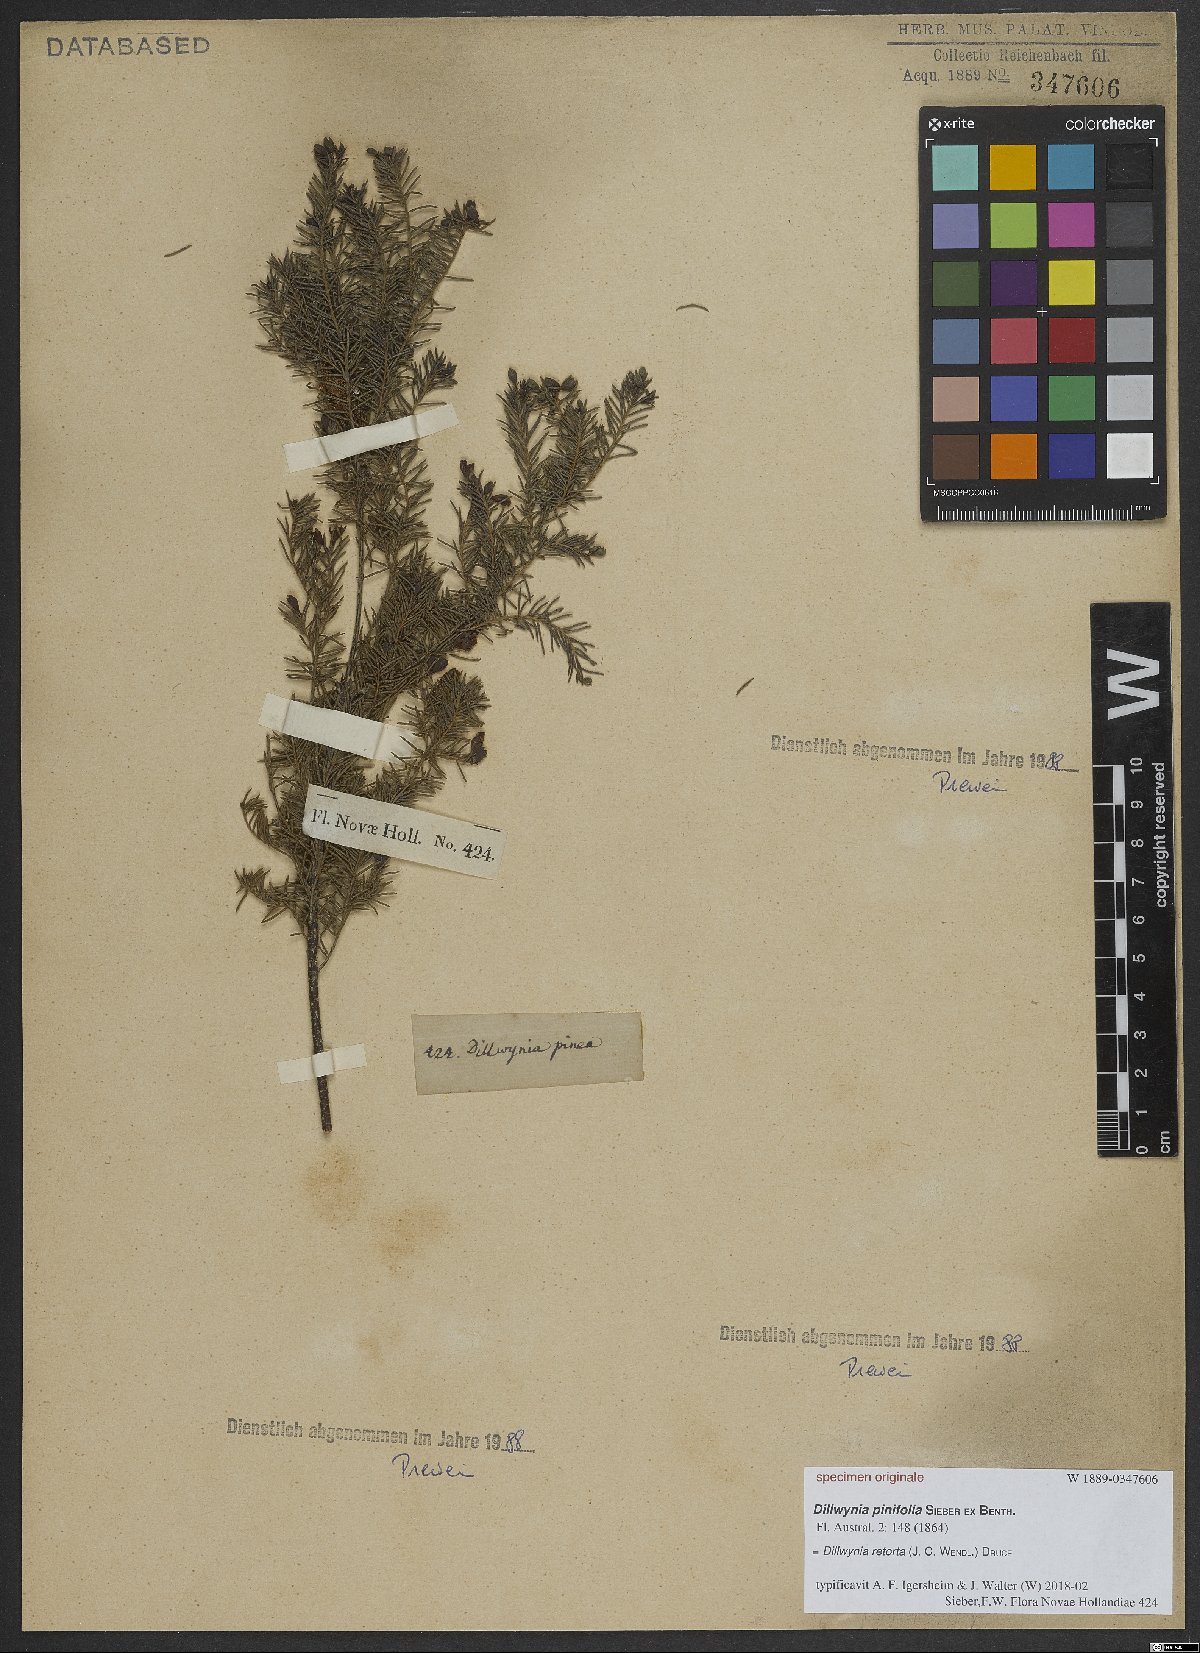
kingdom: Plantae
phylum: Tracheophyta
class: Magnoliopsida
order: Fabales
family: Fabaceae
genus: Dillwynia
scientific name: Dillwynia retorta
